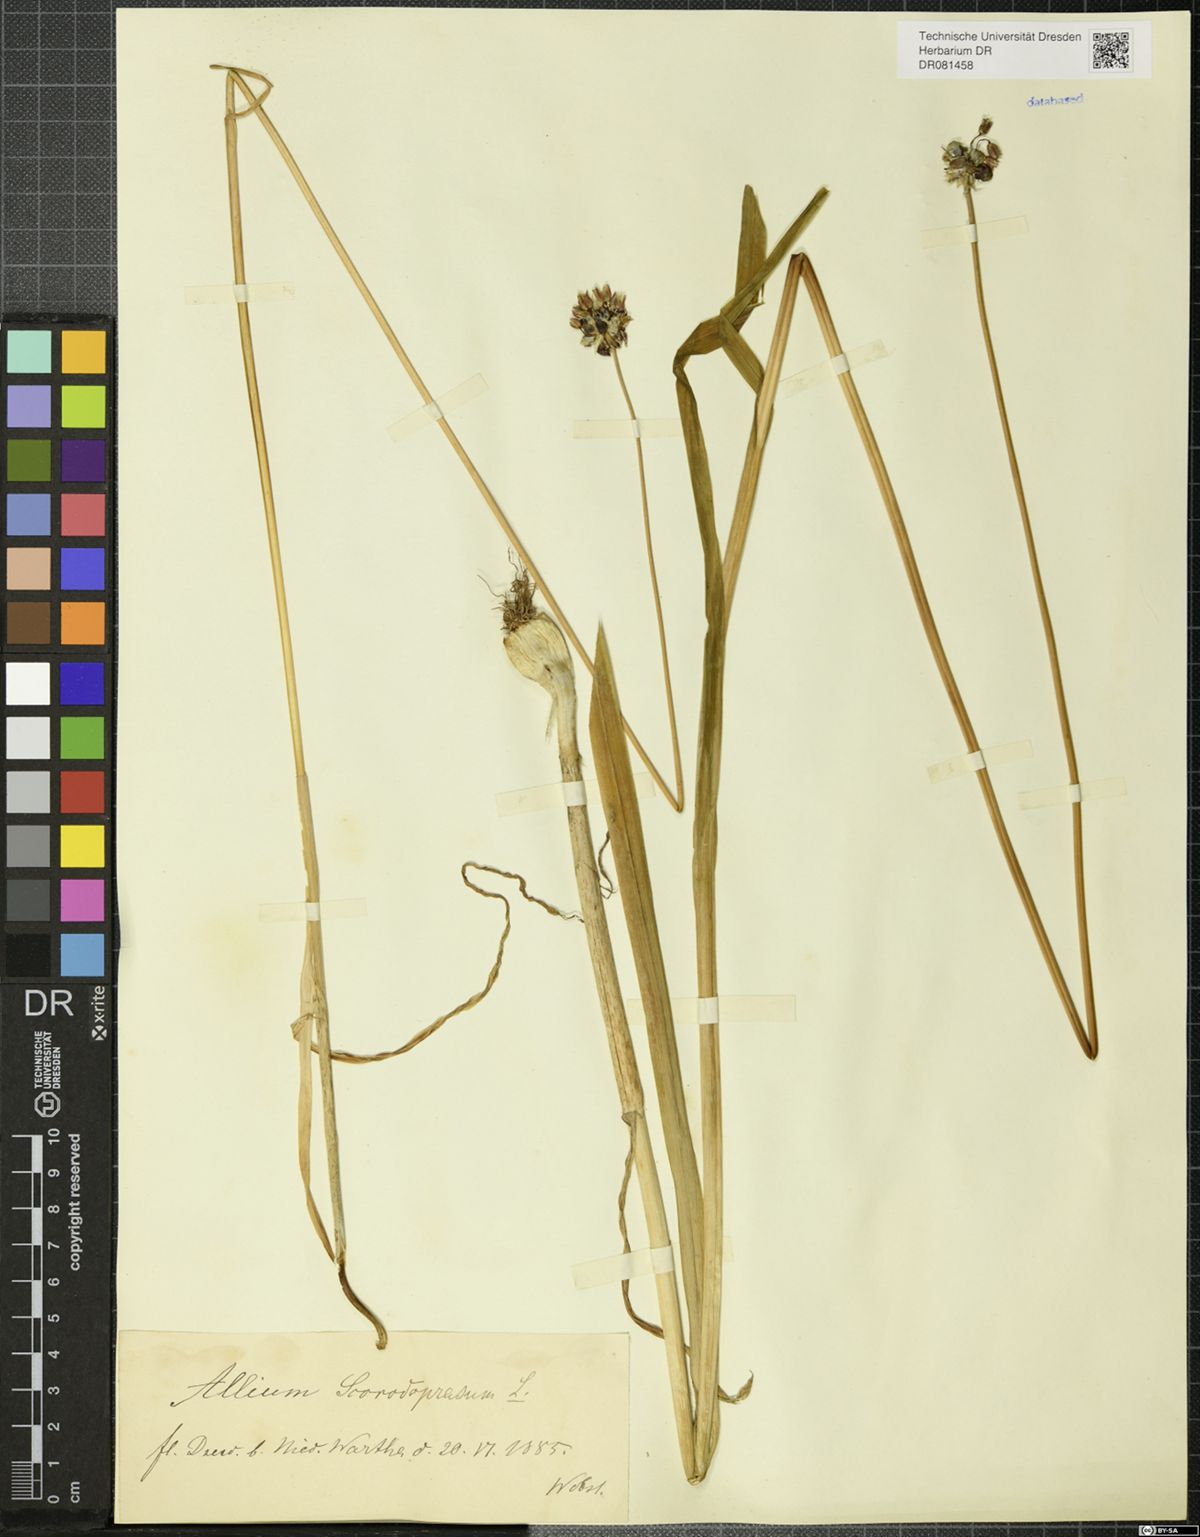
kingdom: Plantae
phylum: Tracheophyta
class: Liliopsida
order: Asparagales
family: Amaryllidaceae
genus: Allium
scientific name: Allium scorodoprasum
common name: Sand leek
